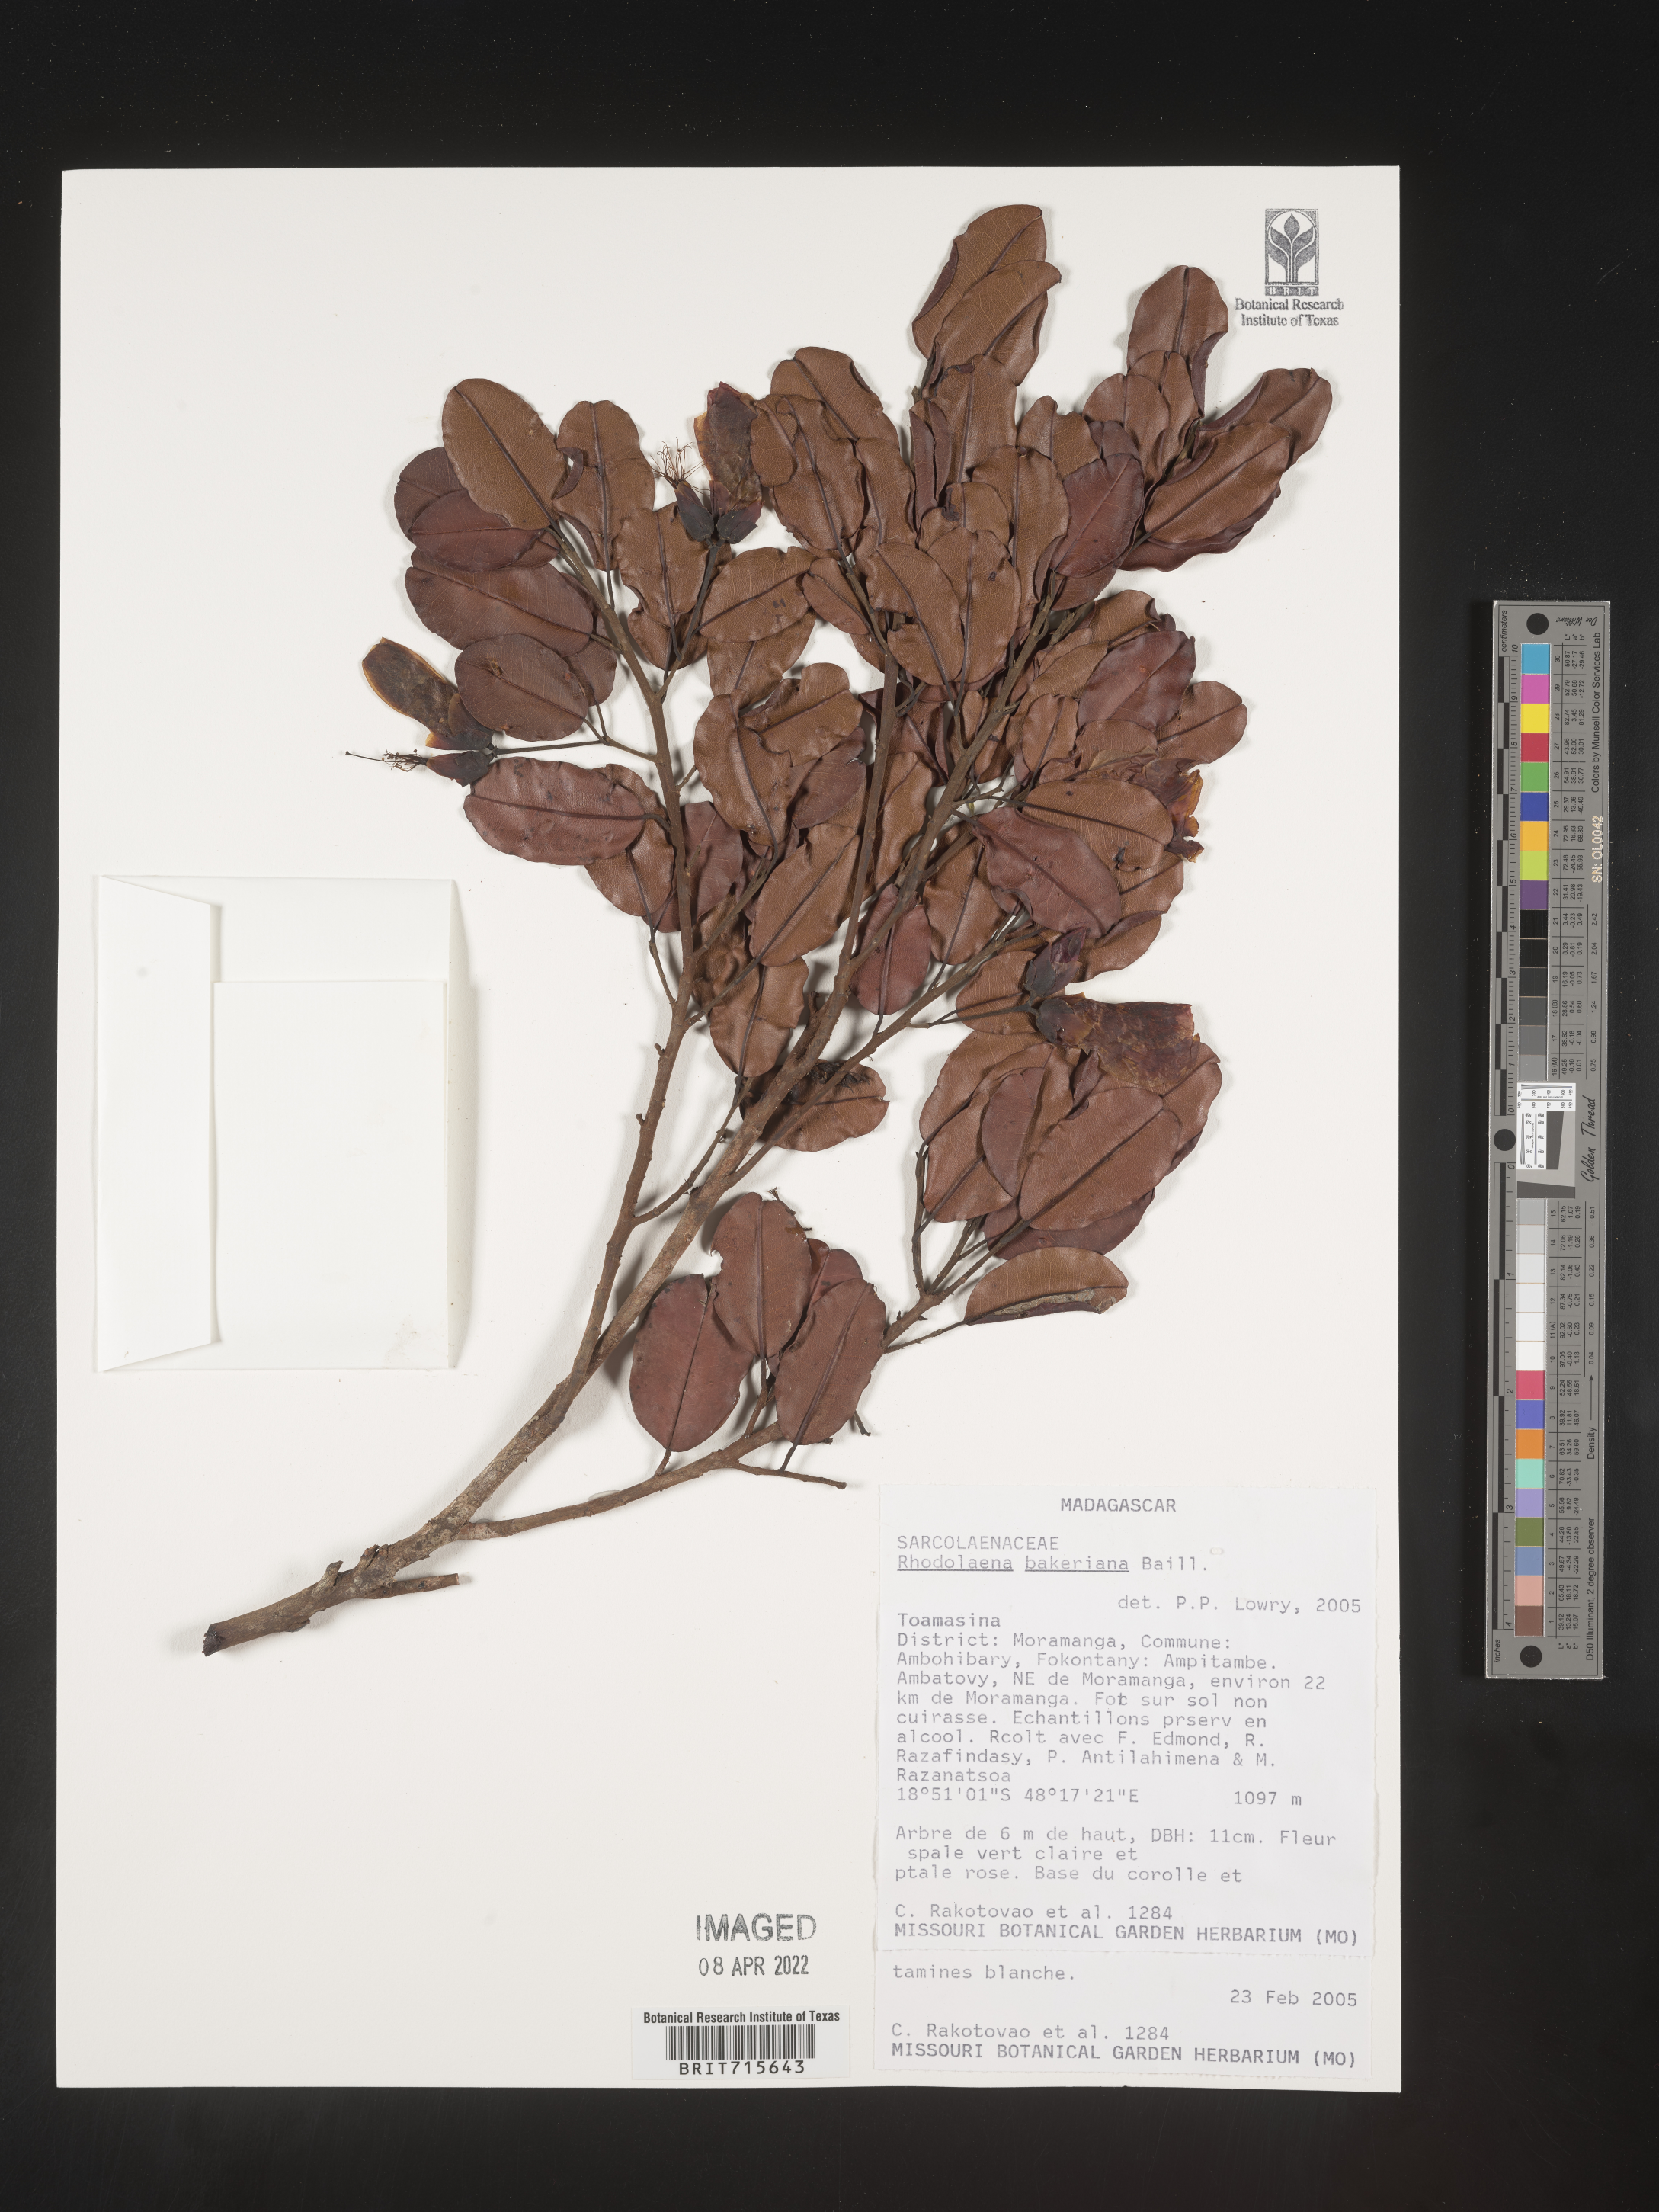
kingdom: Plantae
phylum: Tracheophyta
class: Magnoliopsida
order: Malvales
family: Sarcolaenaceae
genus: Rhodolaena
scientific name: Rhodolaena
